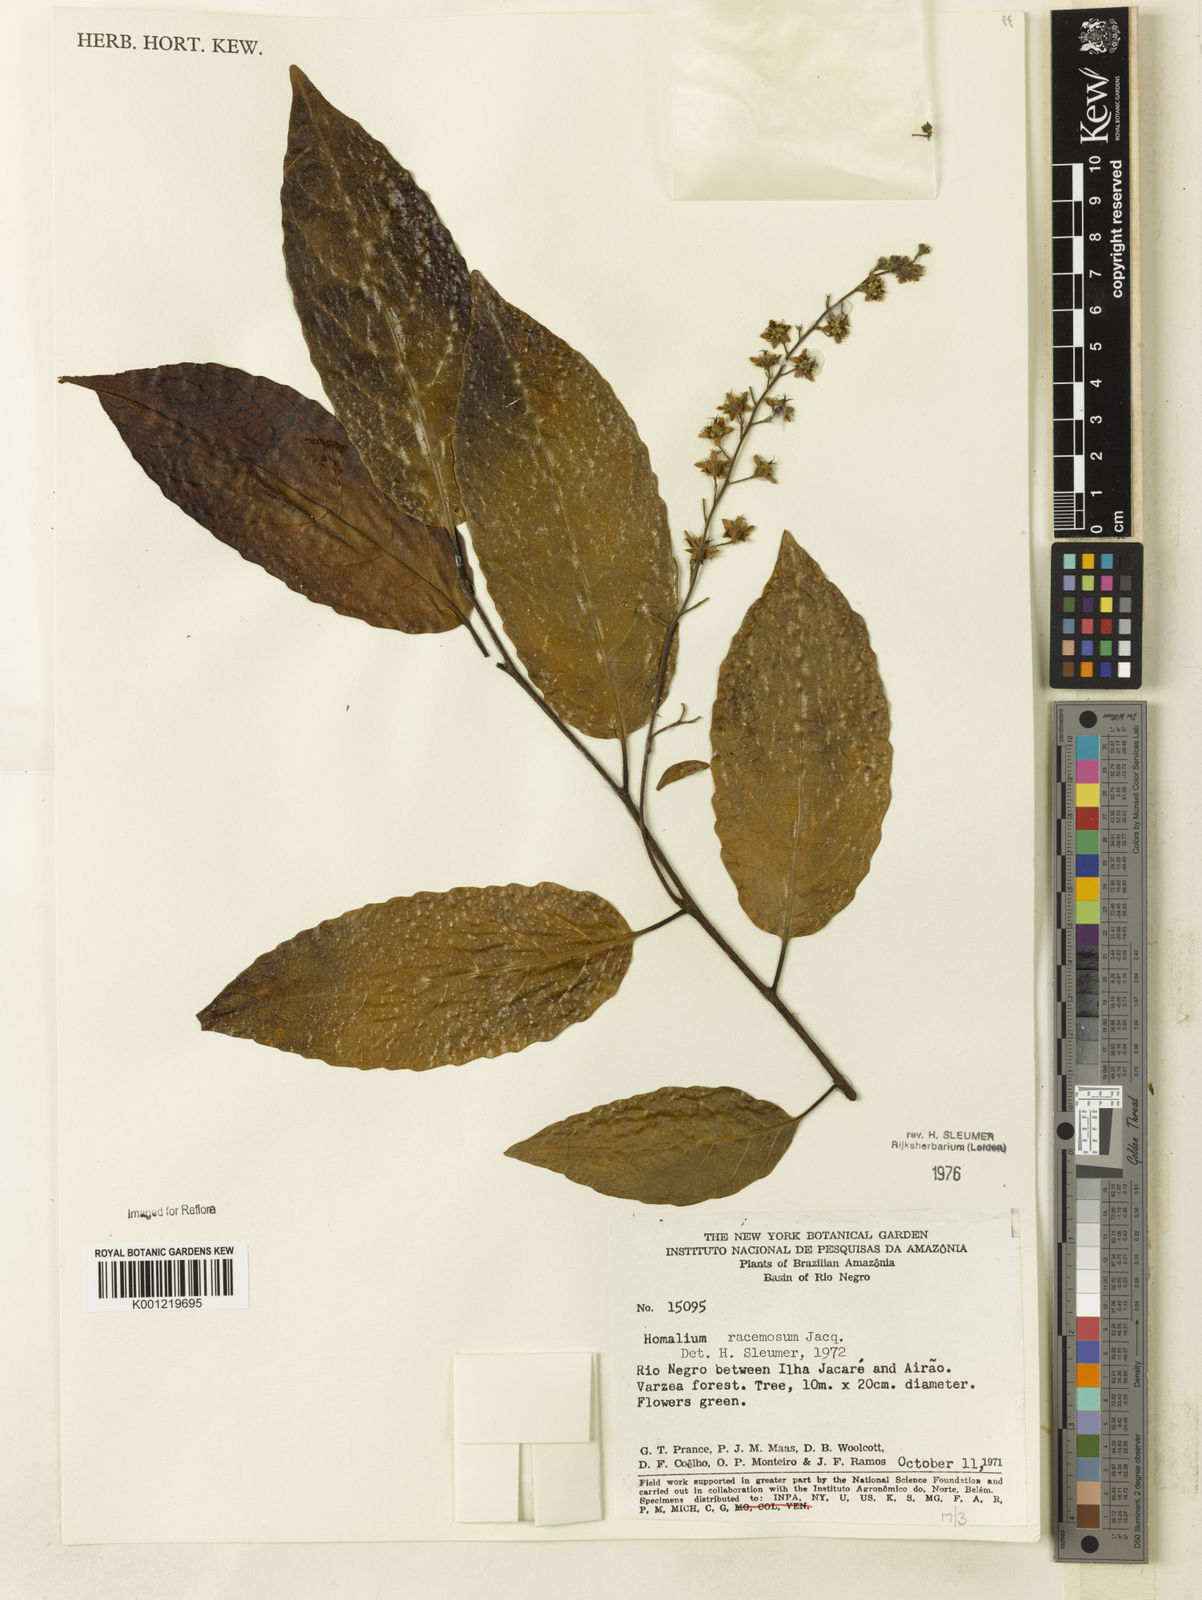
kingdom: Plantae
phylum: Tracheophyta
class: Magnoliopsida
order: Malpighiales
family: Salicaceae
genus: Homalium
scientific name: Homalium racemosum
